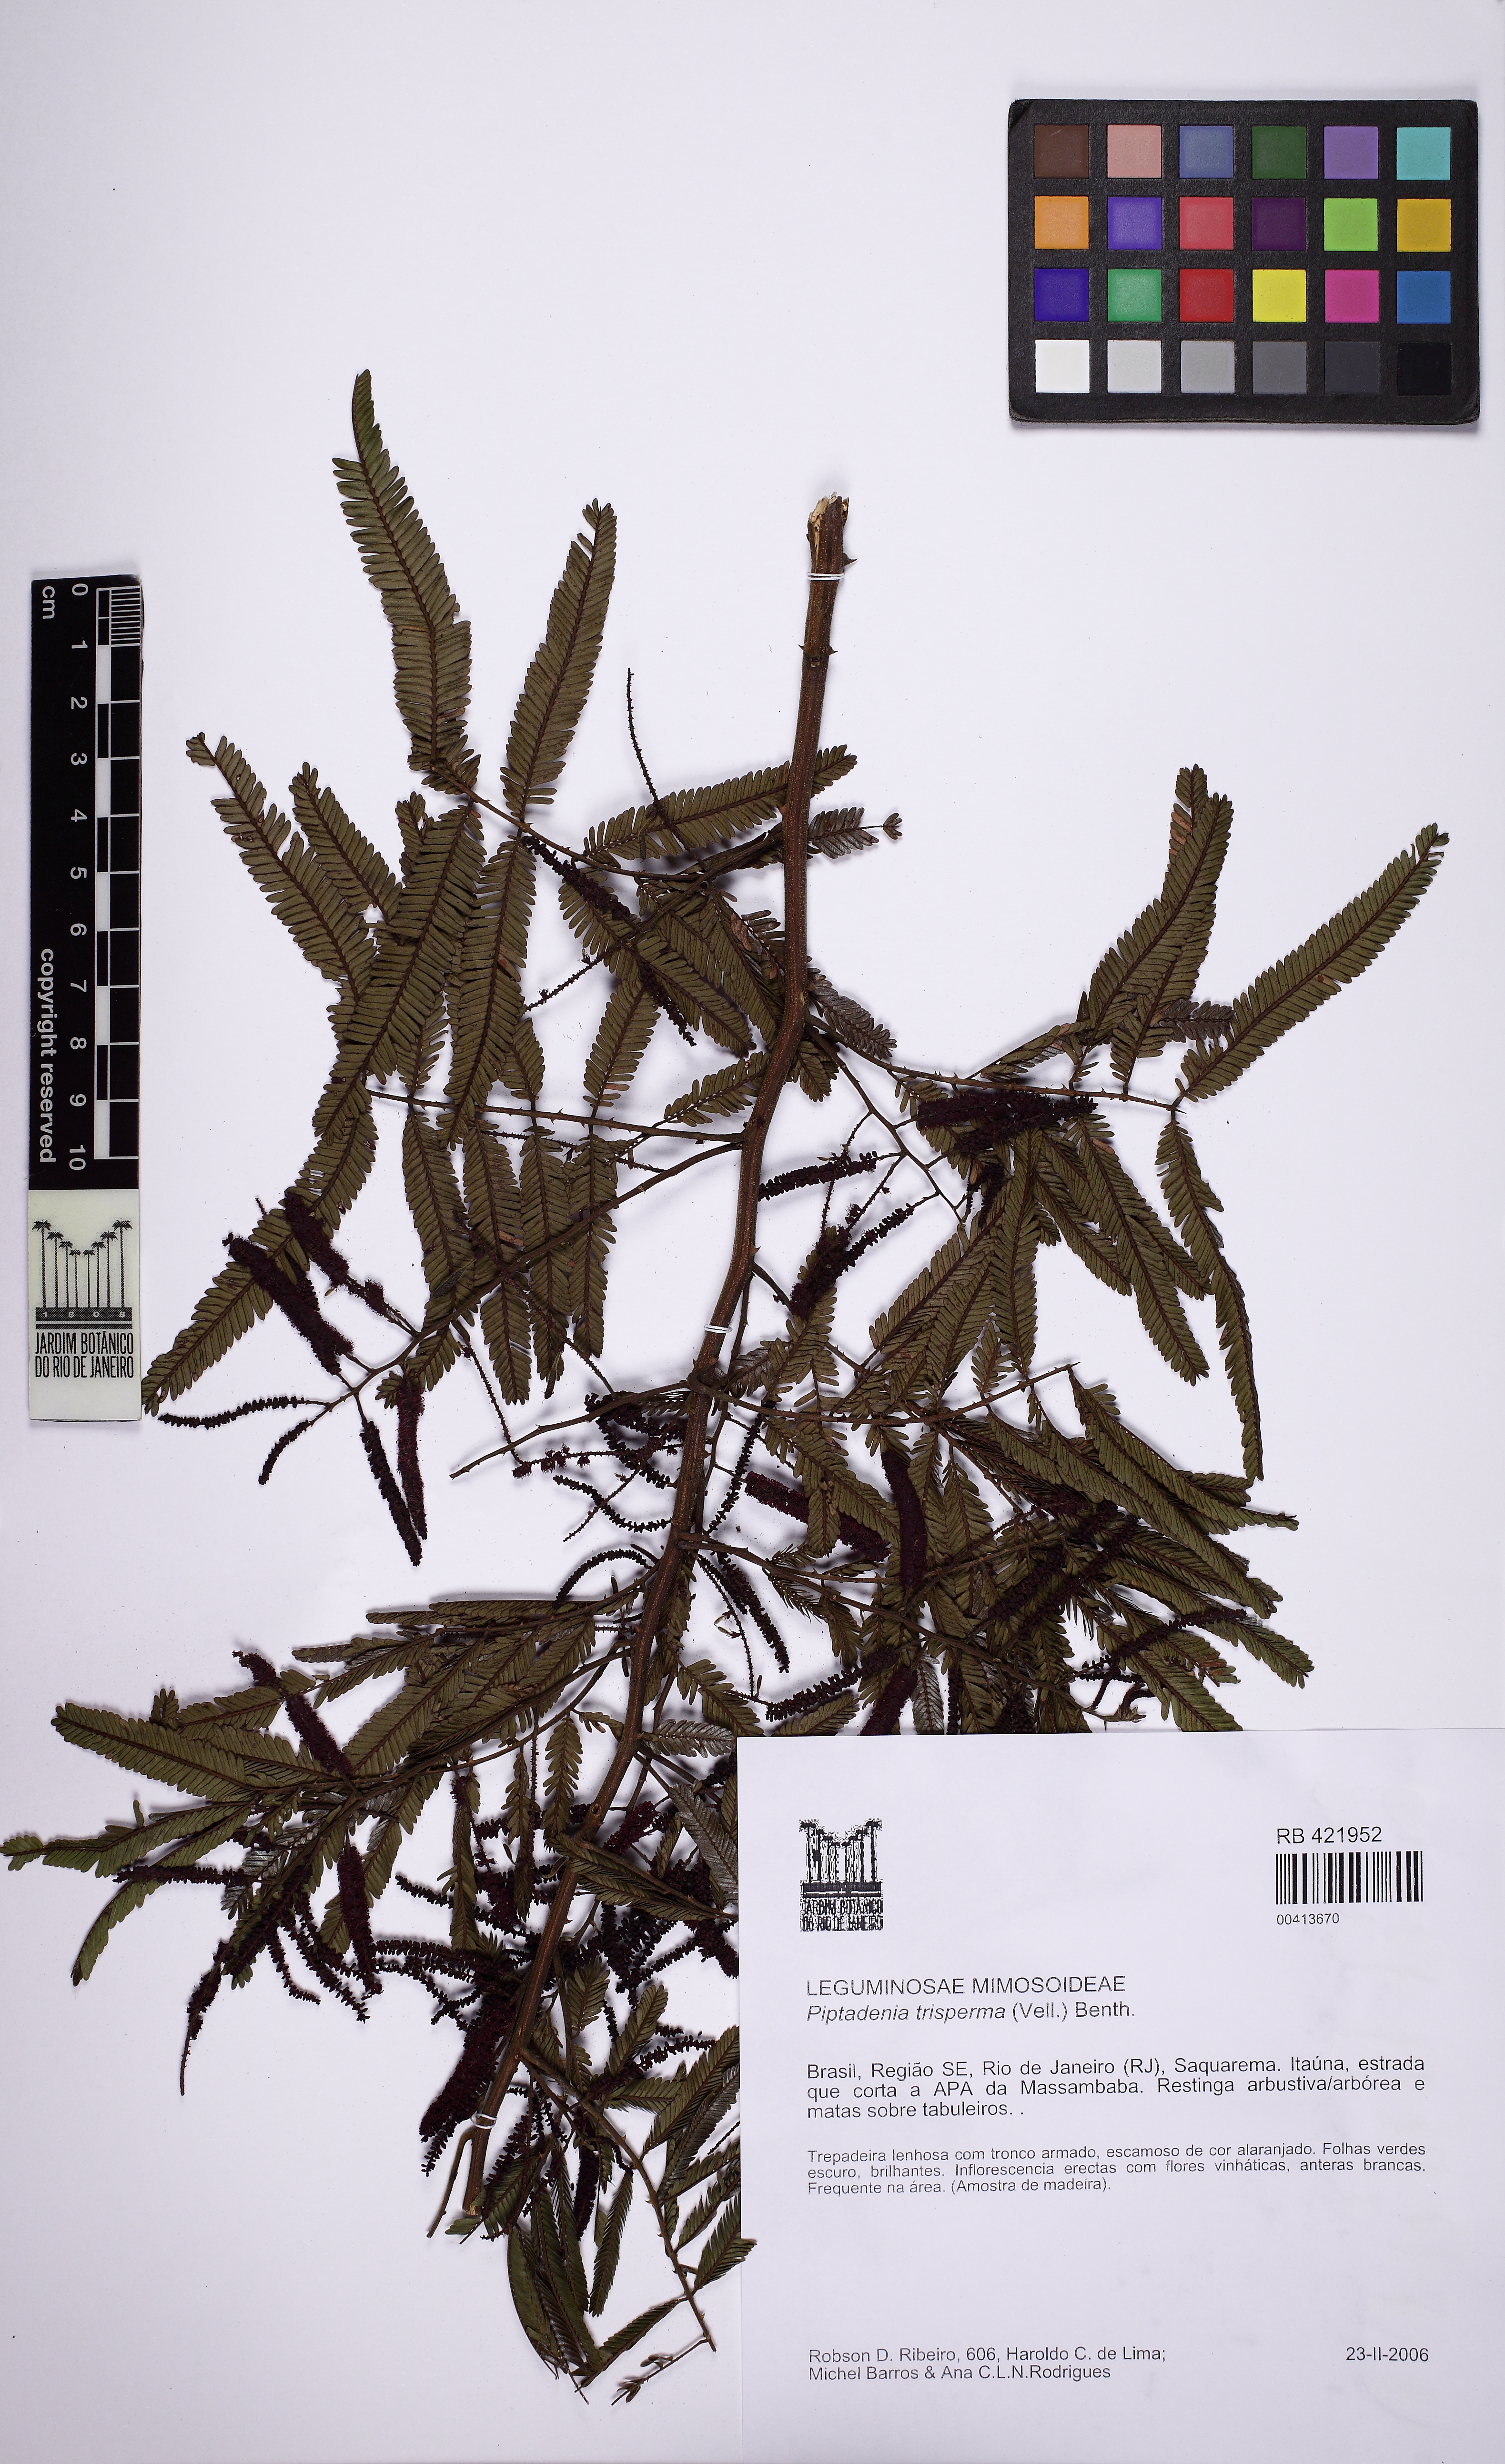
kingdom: Plantae
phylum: Tracheophyta
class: Magnoliopsida
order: Fabales
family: Fabaceae
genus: Piptadenia
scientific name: Piptadenia trisperma
